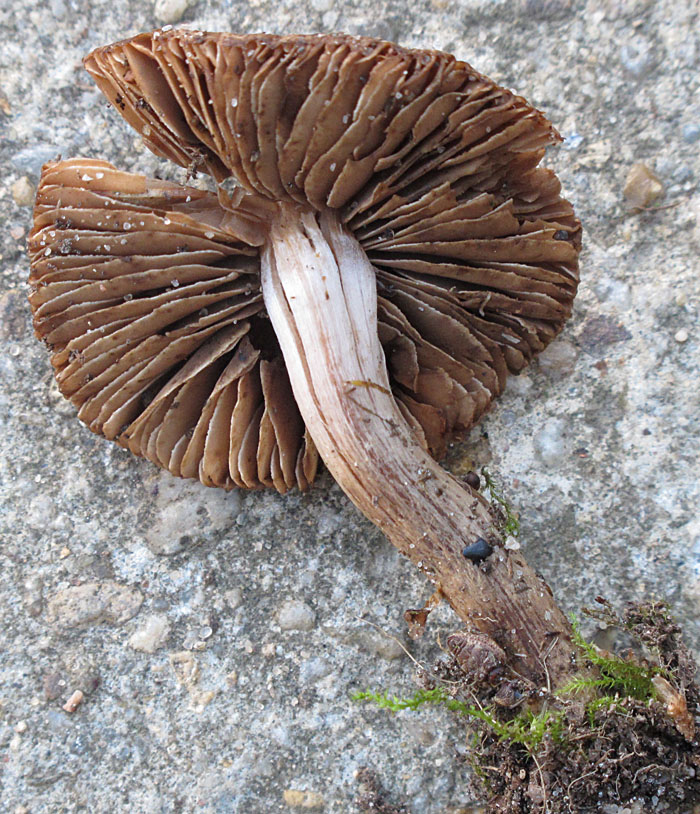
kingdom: Fungi
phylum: Basidiomycota
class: Agaricomycetes
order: Agaricales
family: Inocybaceae
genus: Inocybe
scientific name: Inocybe pluppiana
